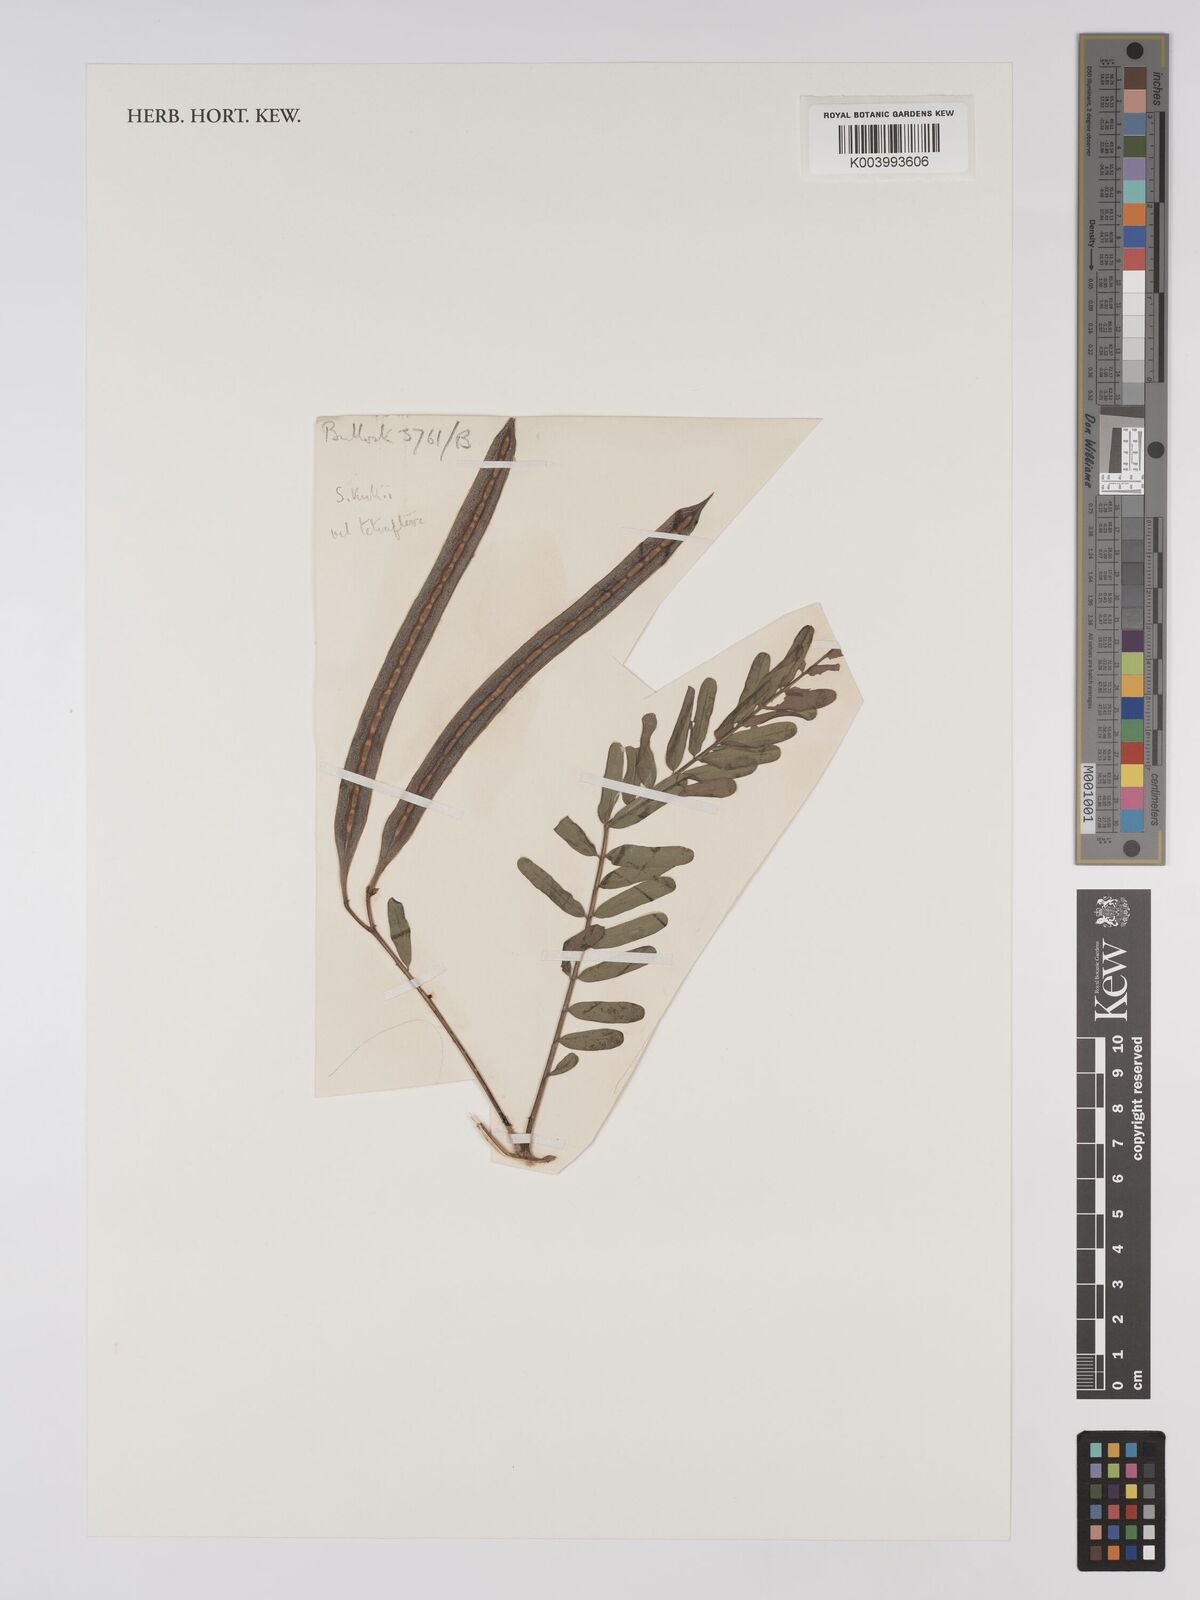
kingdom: Plantae
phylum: Tracheophyta
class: Magnoliopsida
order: Fabales
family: Fabaceae
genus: Sesbania
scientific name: Sesbania tetraptera
